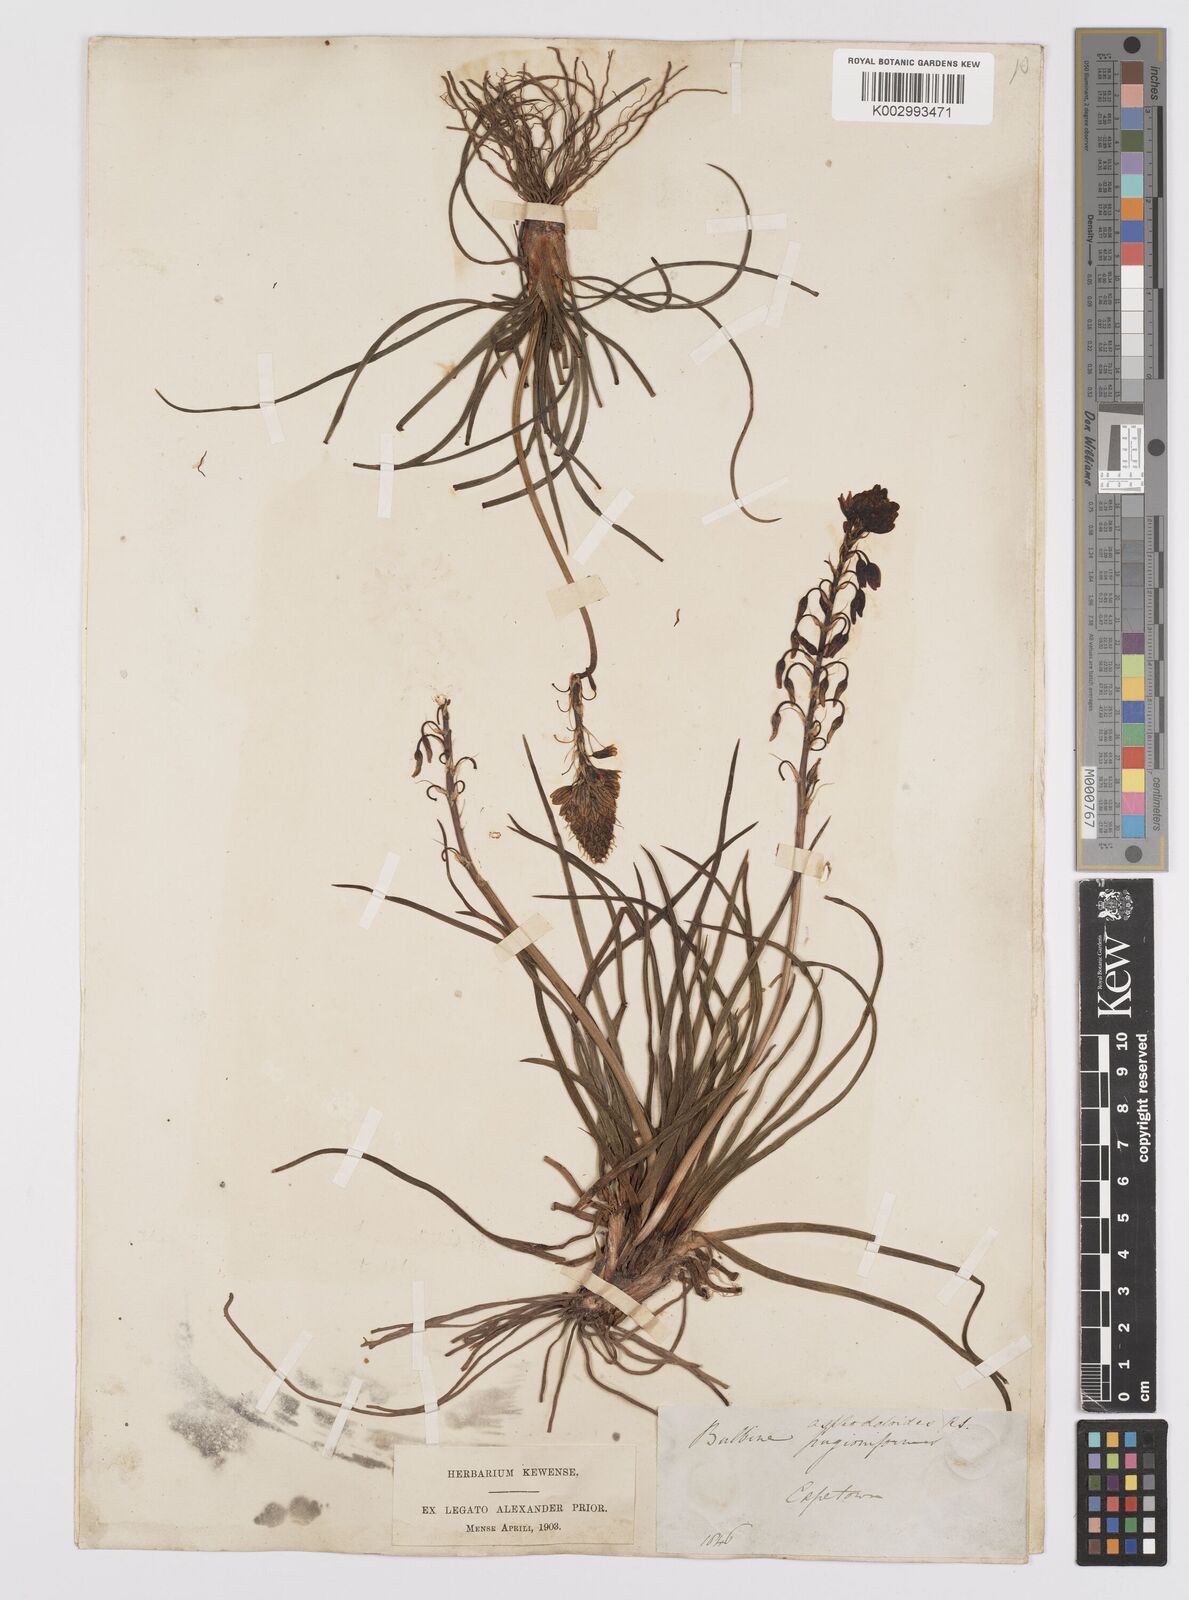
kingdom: Plantae
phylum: Tracheophyta
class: Liliopsida
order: Asparagales
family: Asphodelaceae
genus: Bulbine
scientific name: Bulbine lagopus
